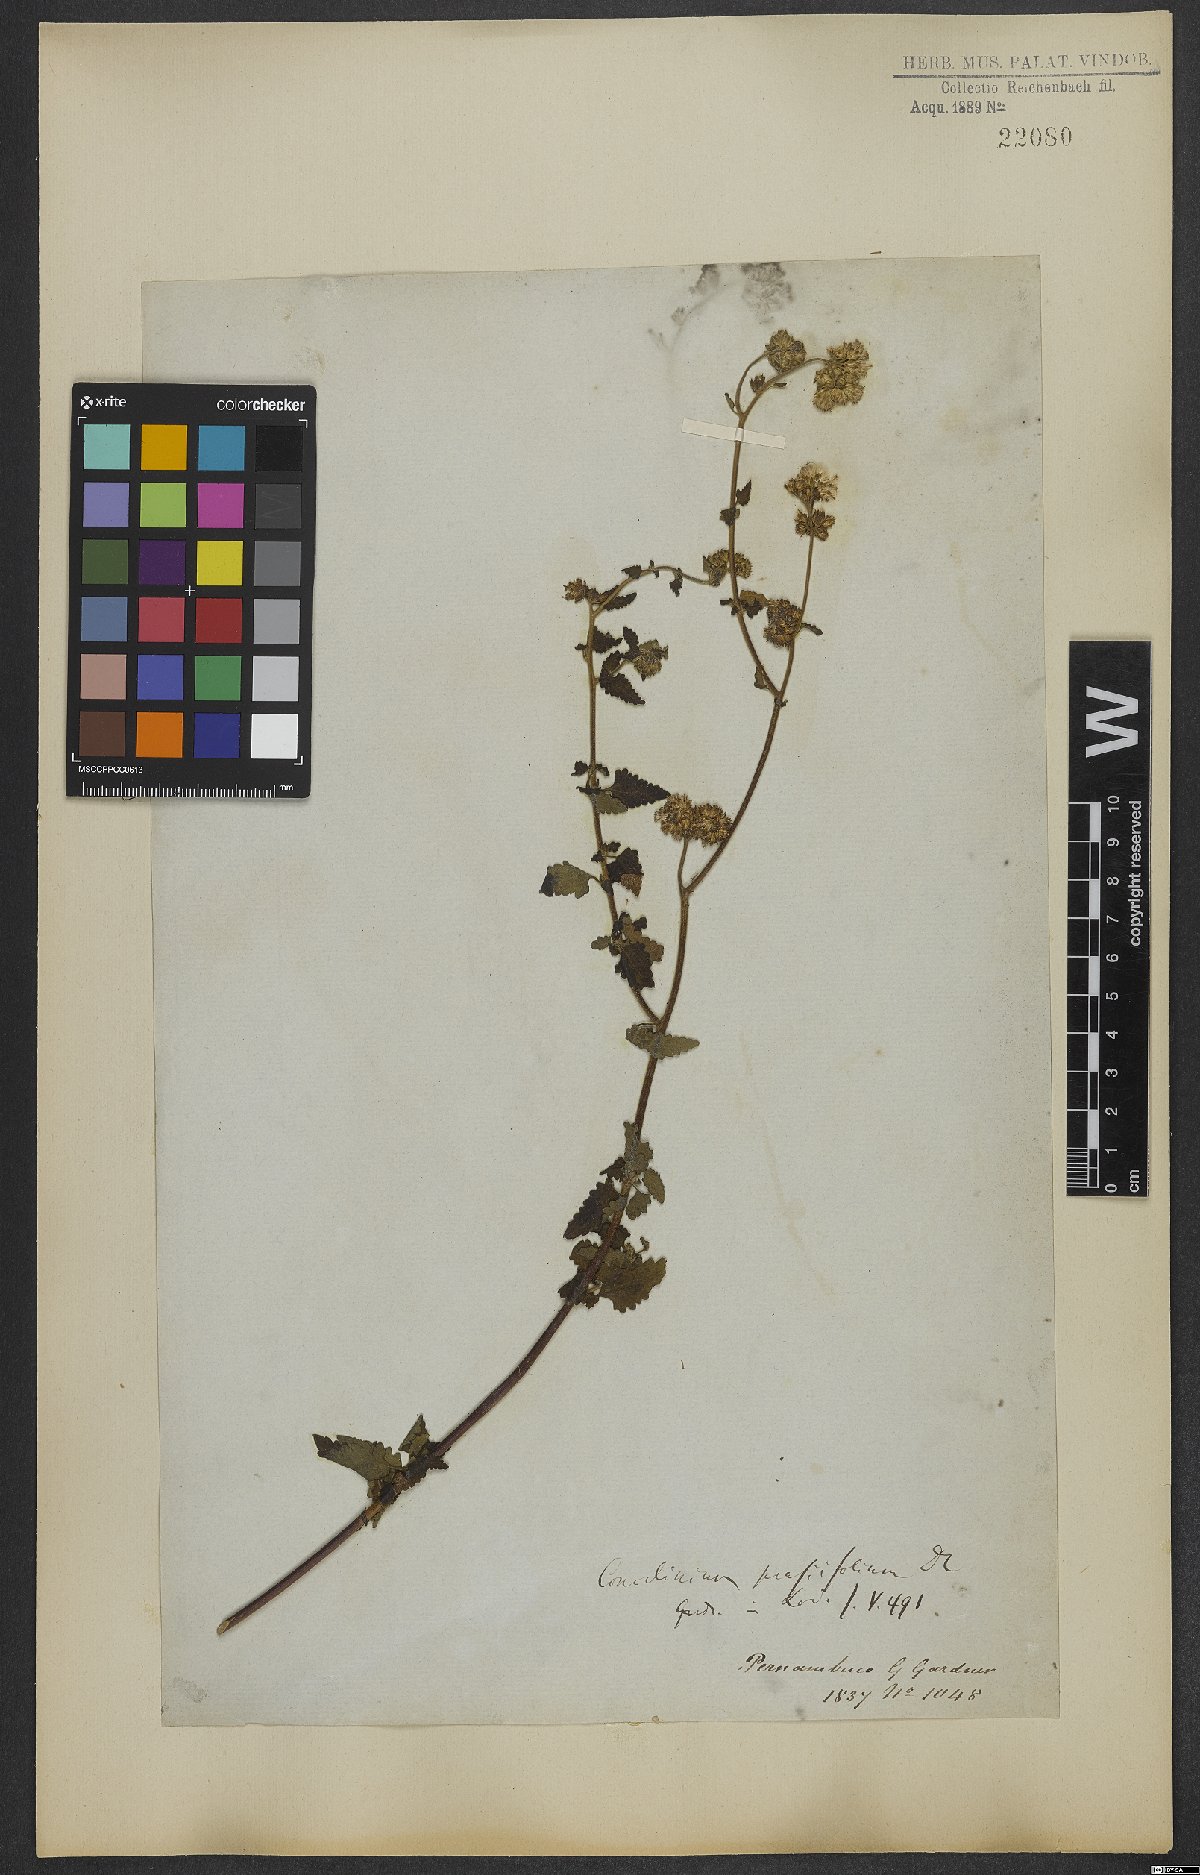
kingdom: Plantae
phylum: Tracheophyta
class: Magnoliopsida
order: Asterales
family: Asteraceae
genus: Conocliniopsis
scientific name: Conocliniopsis grossedentata
